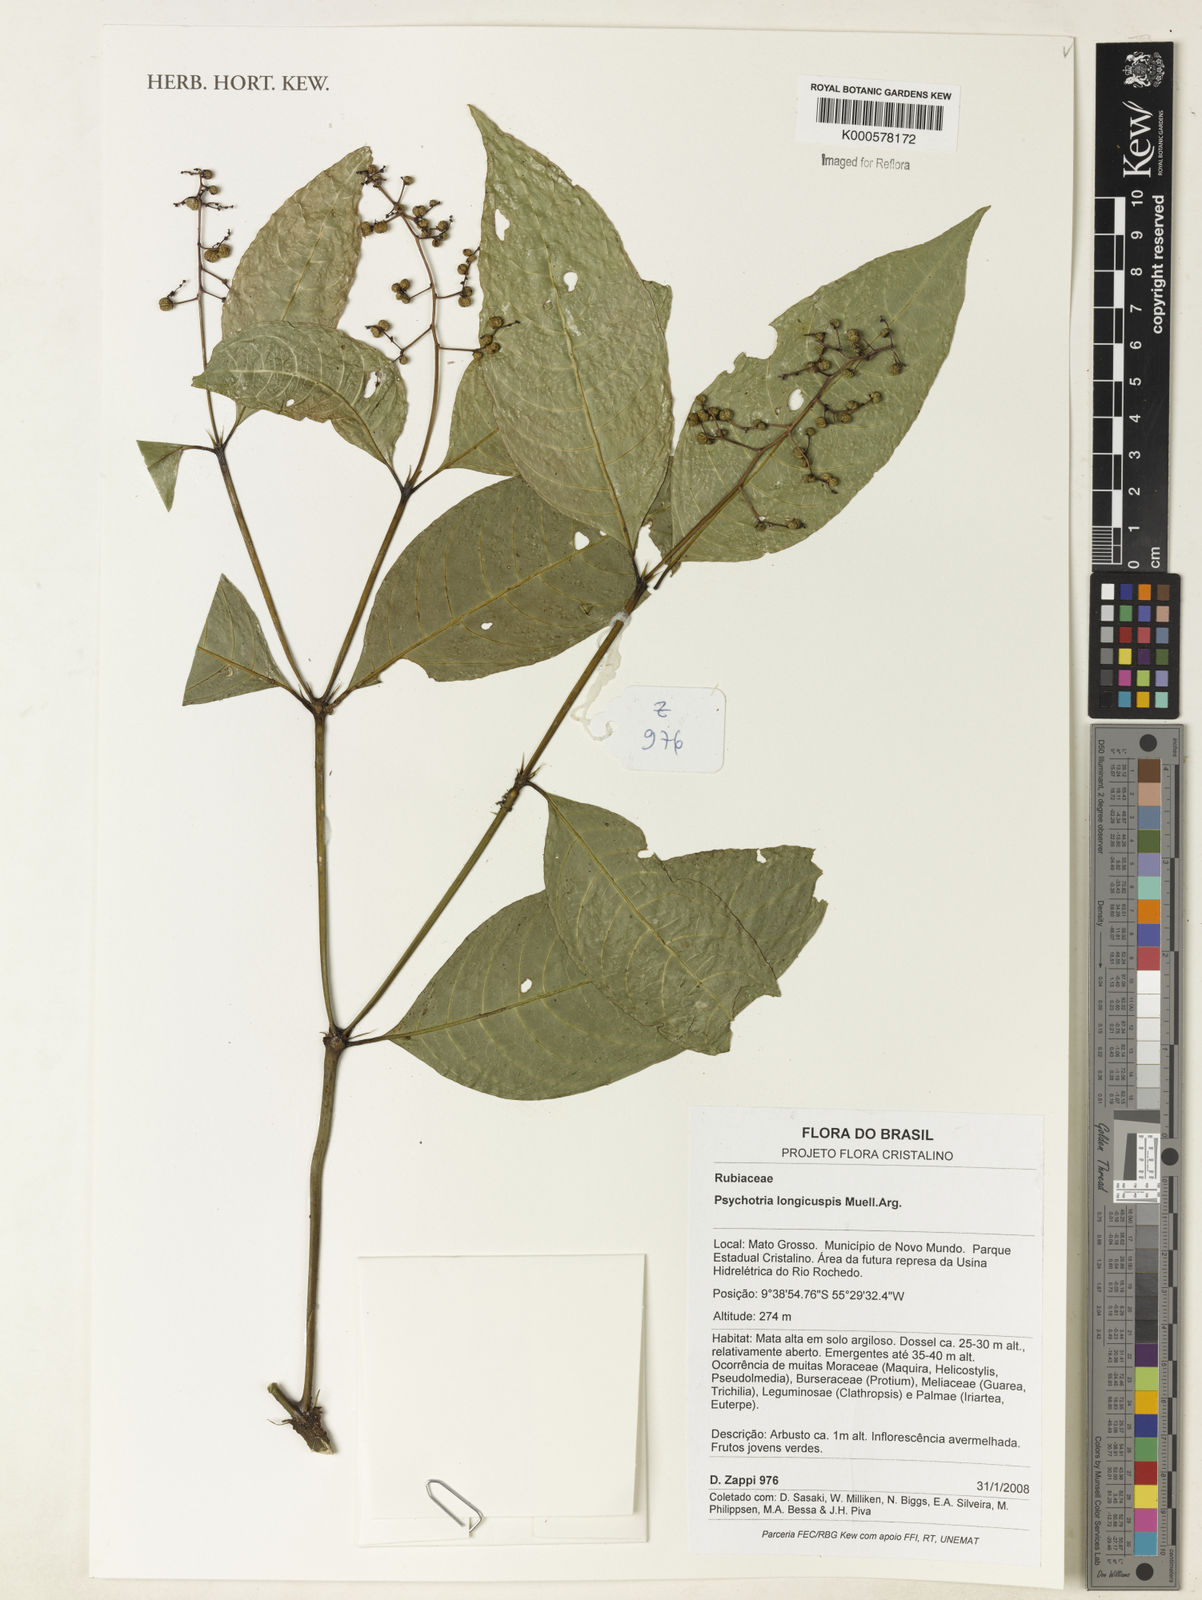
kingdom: Plantae
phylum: Tracheophyta
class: Magnoliopsida
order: Gentianales
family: Rubiaceae
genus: Psychotria
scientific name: Psychotria
